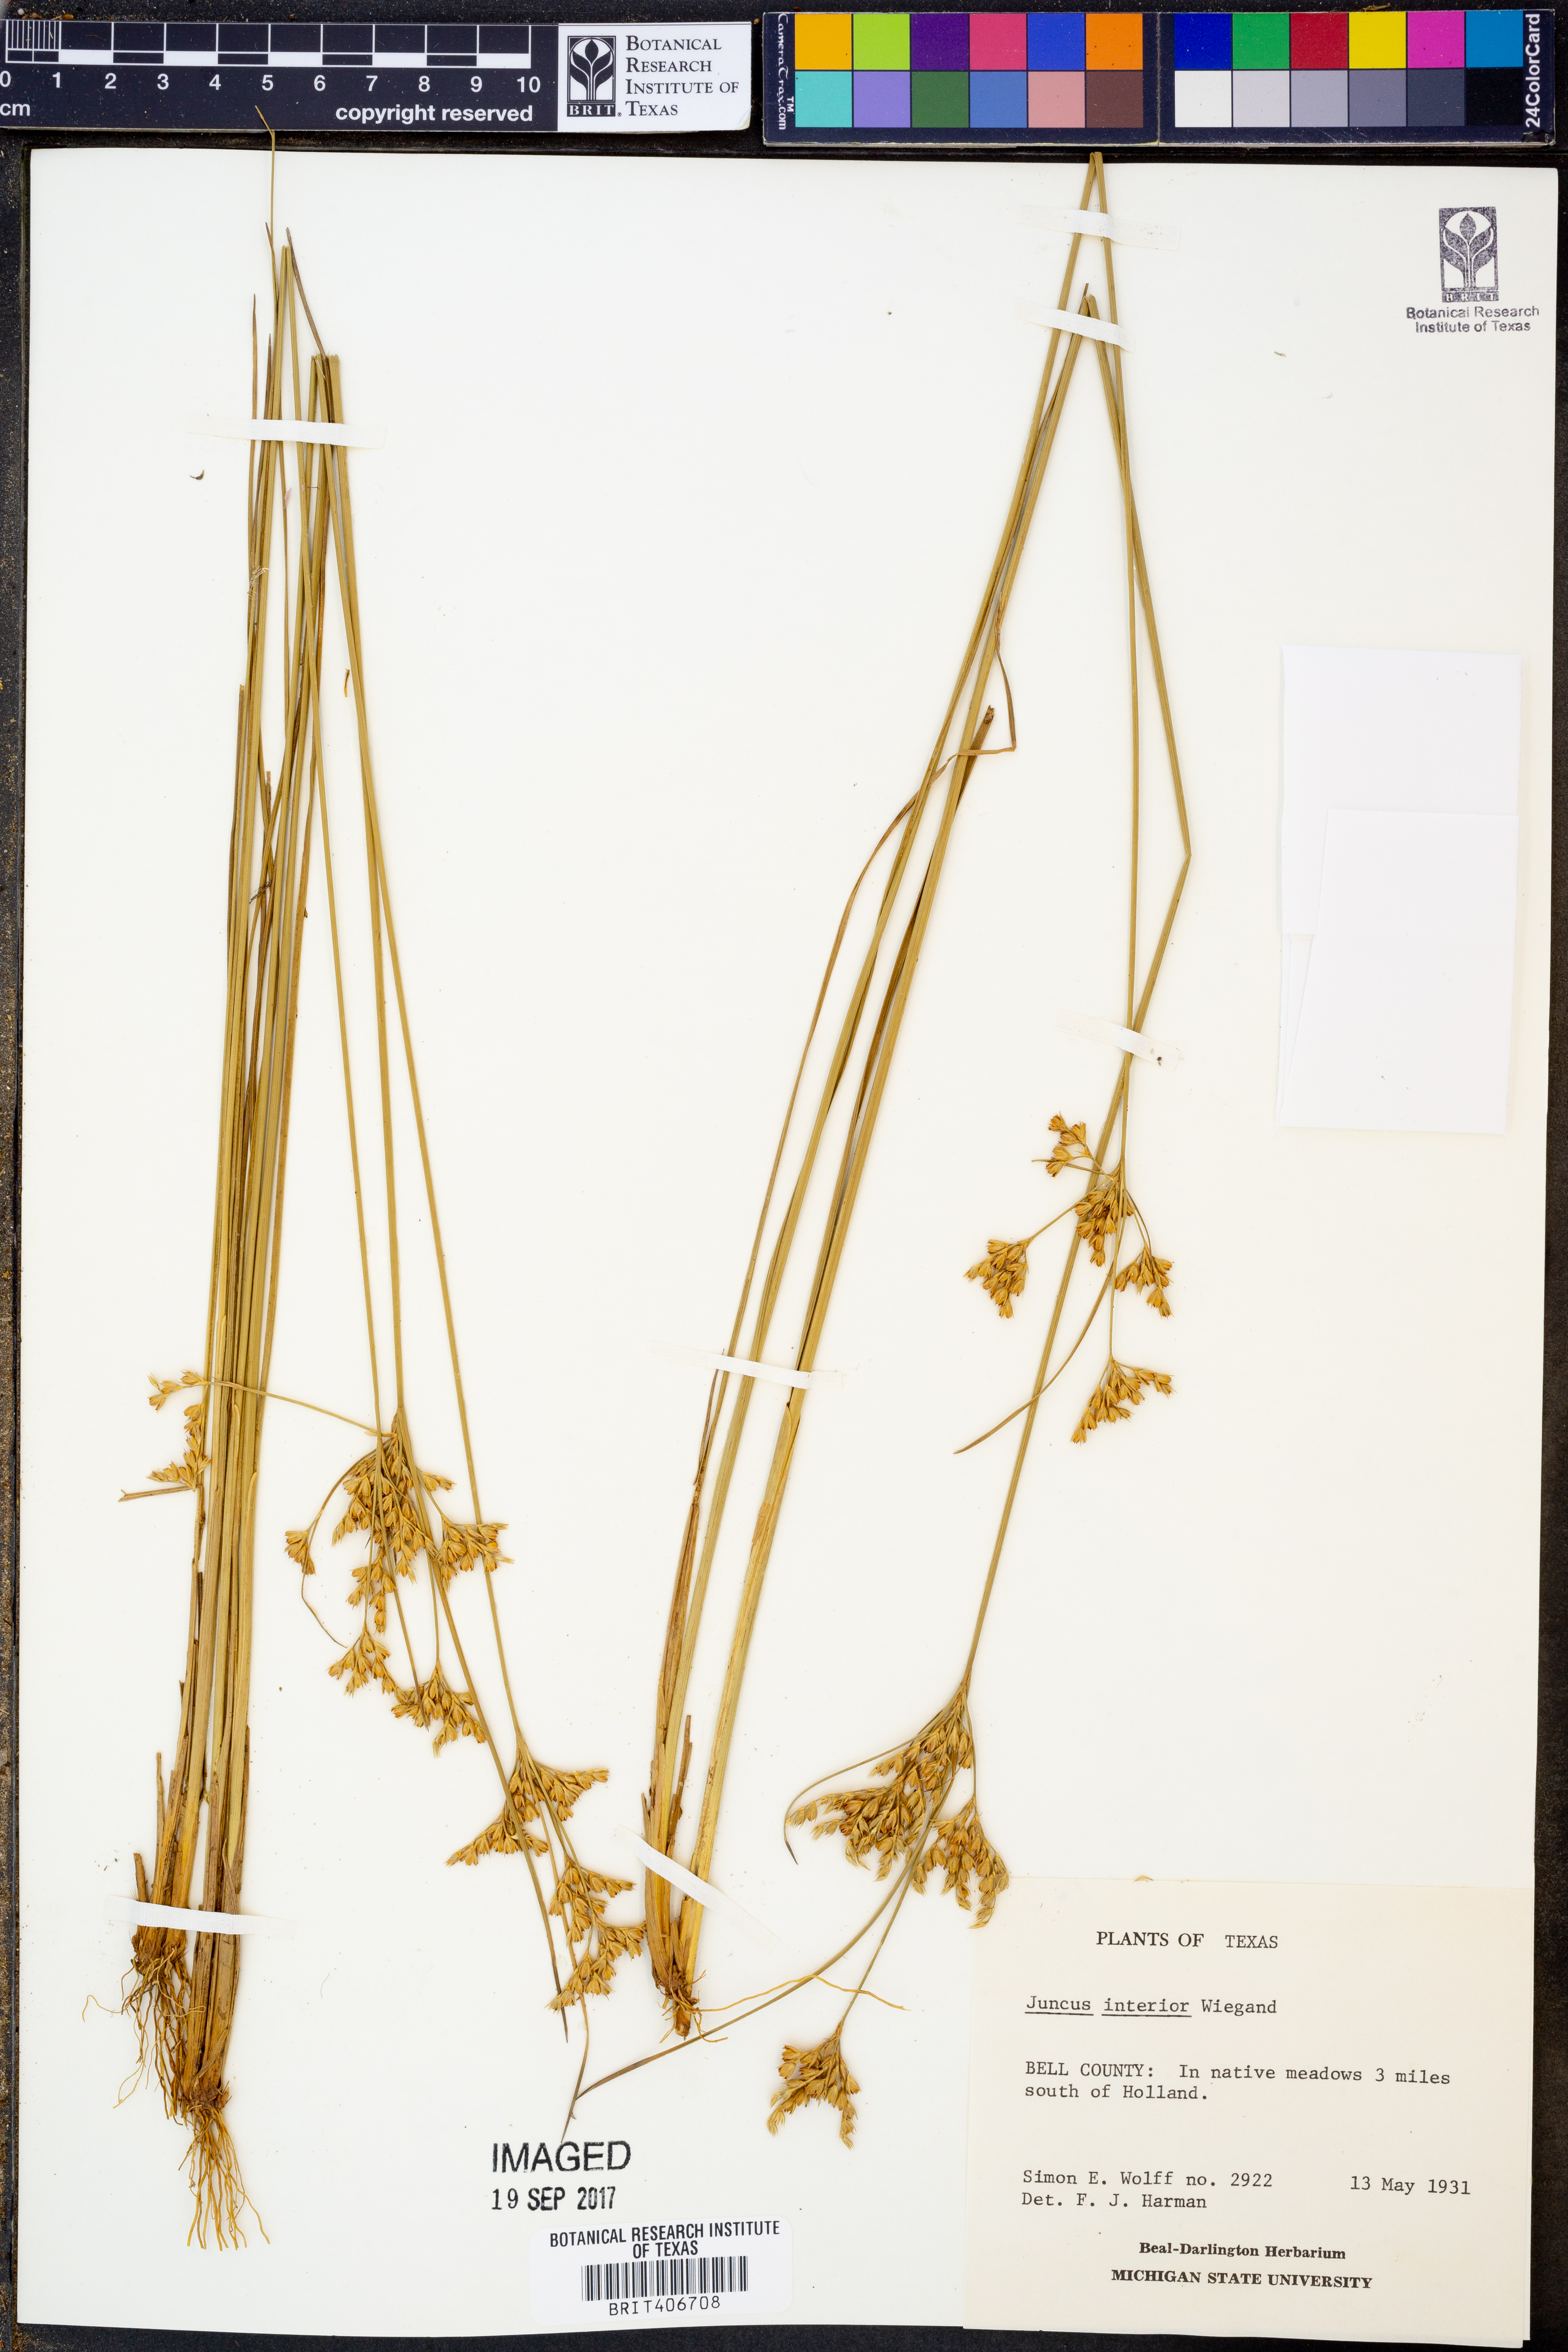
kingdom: Plantae
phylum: Tracheophyta
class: Liliopsida
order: Poales
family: Juncaceae
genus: Juncus
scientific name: Juncus interior
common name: Interior rush
